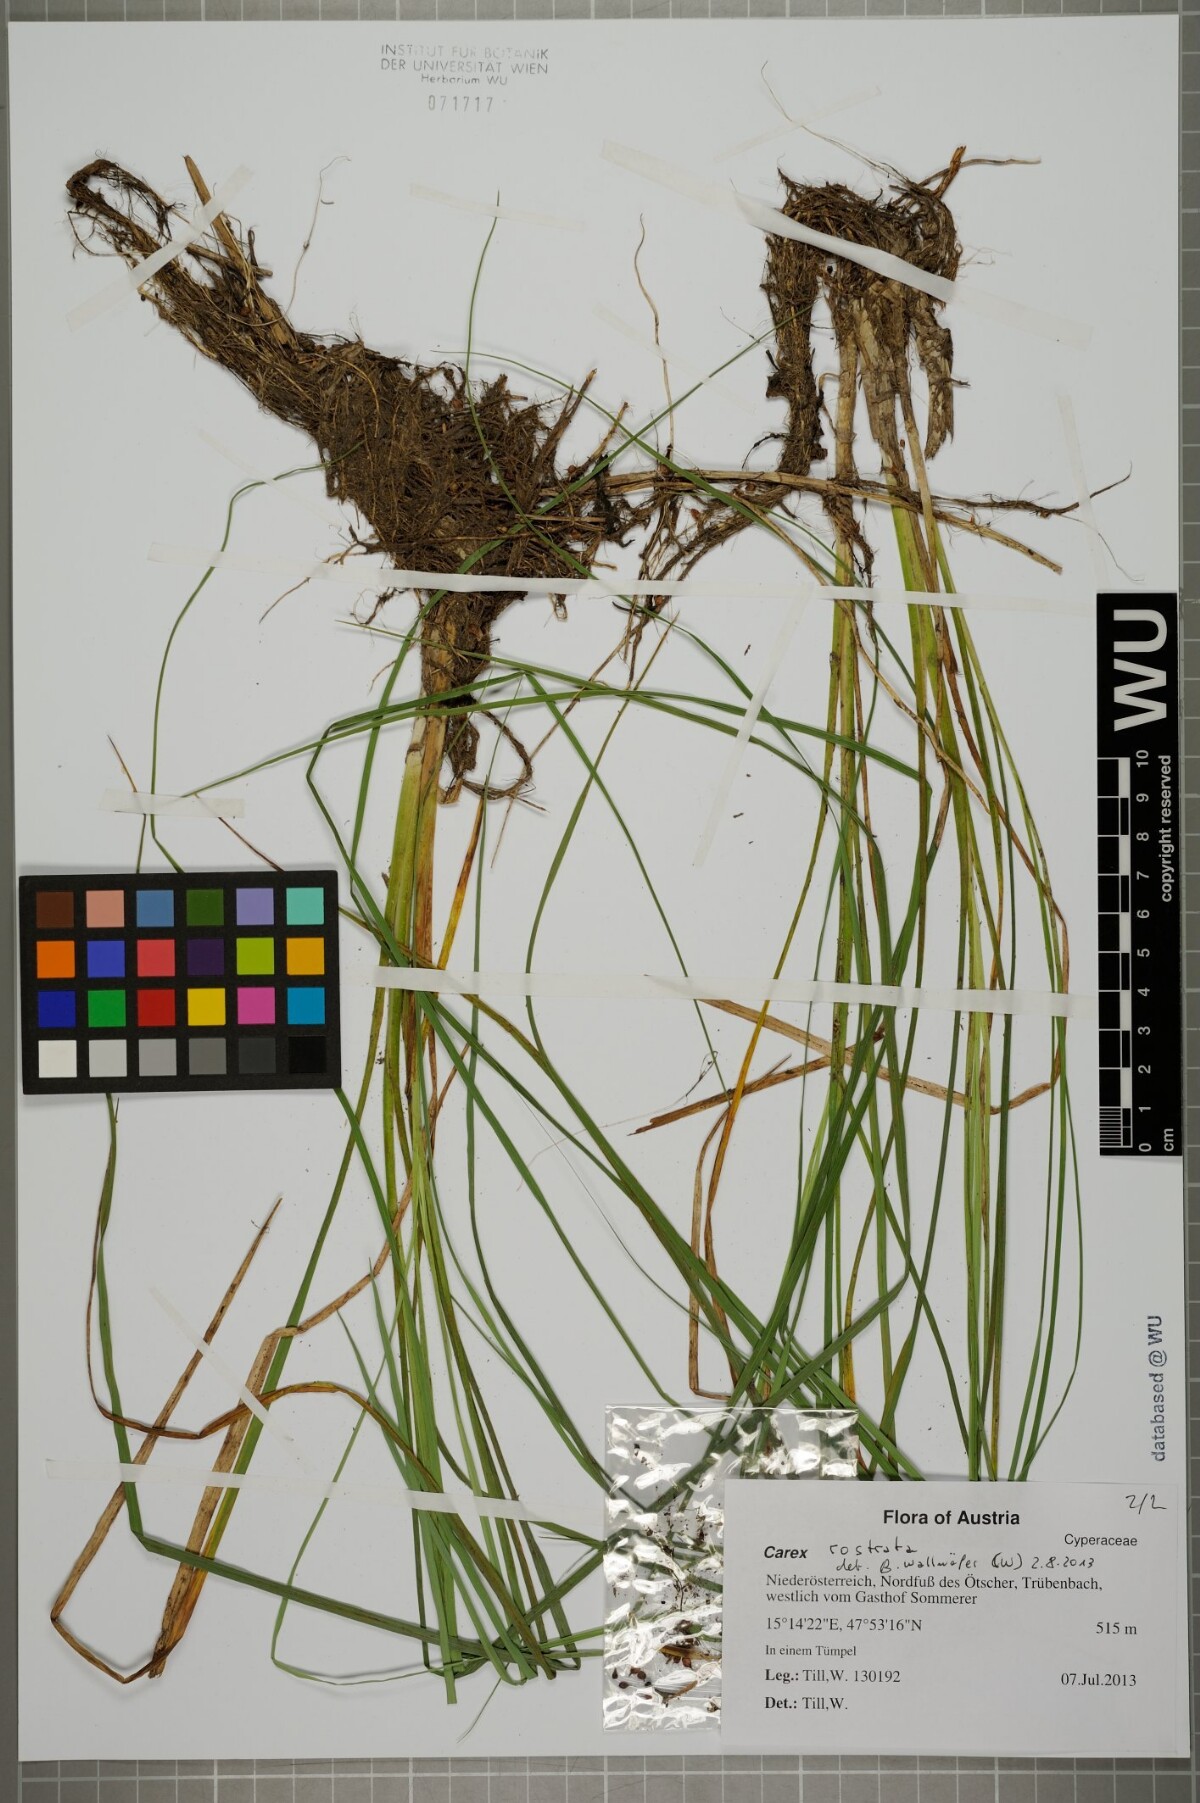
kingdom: Plantae
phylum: Tracheophyta
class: Liliopsida
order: Poales
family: Cyperaceae
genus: Carex
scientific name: Carex rostrata
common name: Bottle sedge
